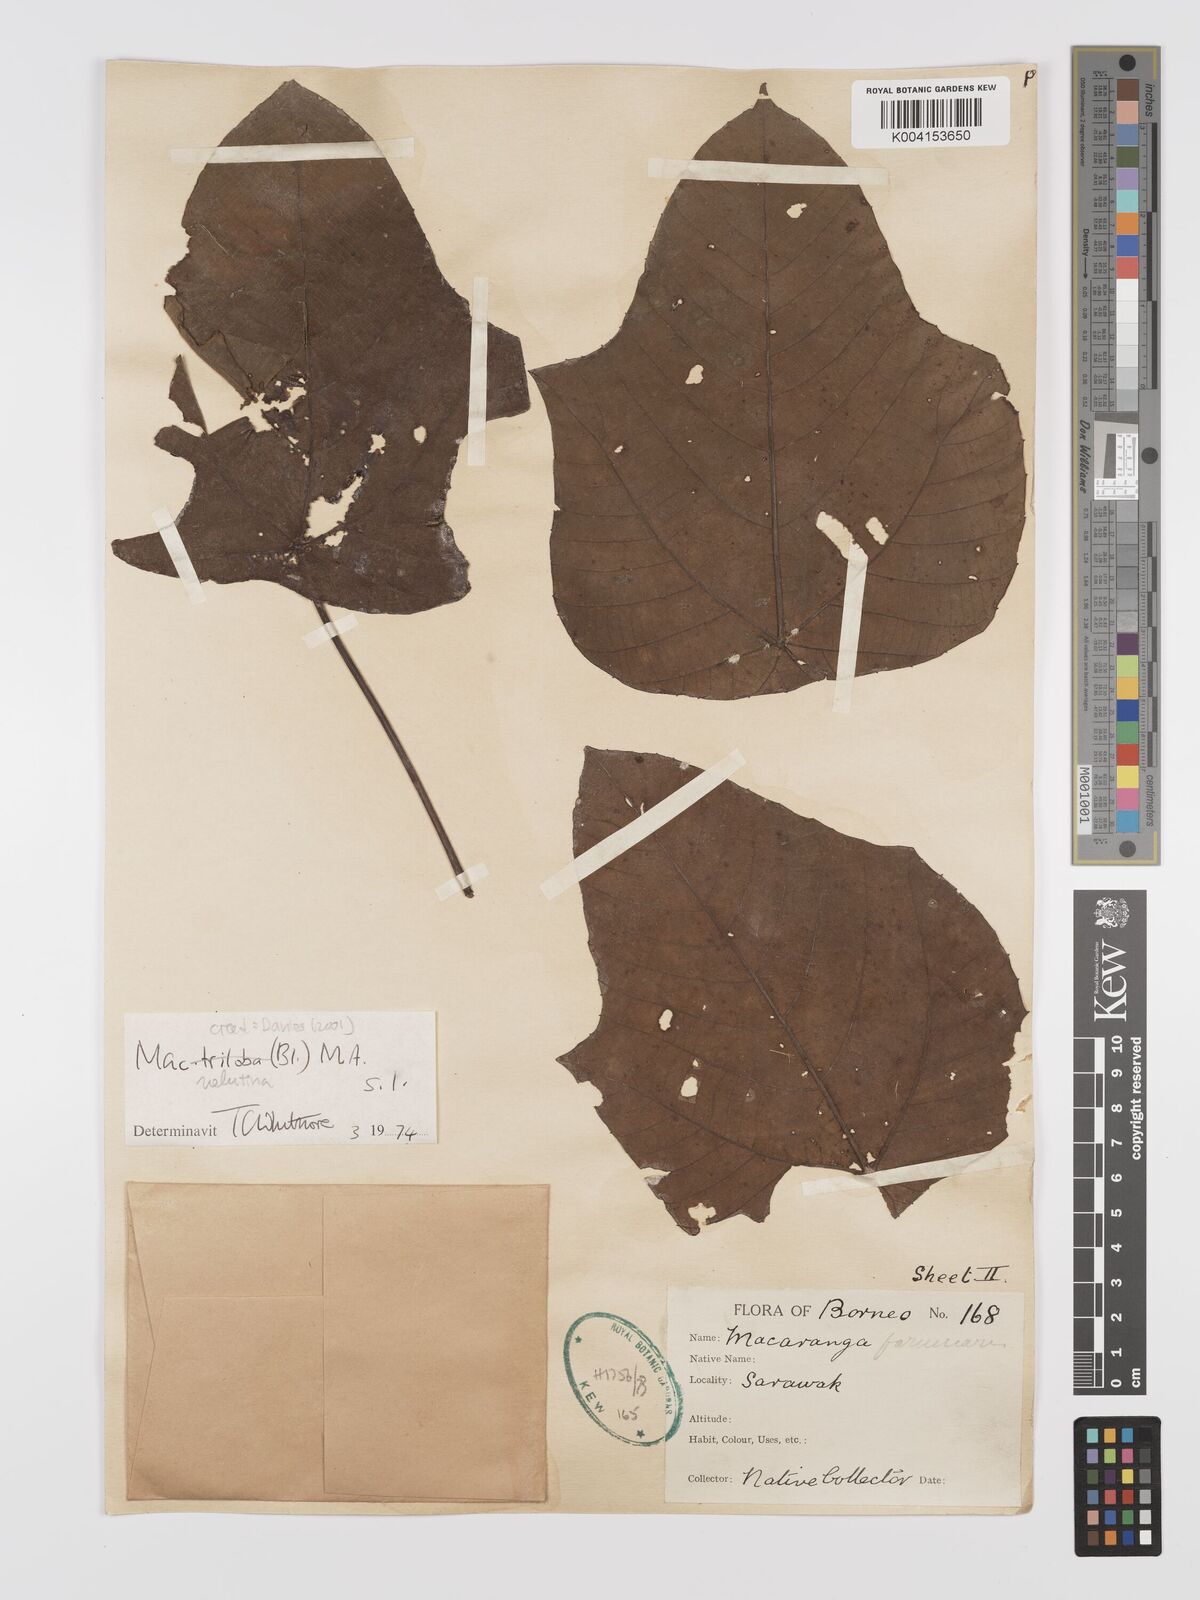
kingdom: Plantae
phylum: Tracheophyta
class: Magnoliopsida
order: Malpighiales
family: Euphorbiaceae
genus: Macaranga
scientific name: Macaranga triloba
